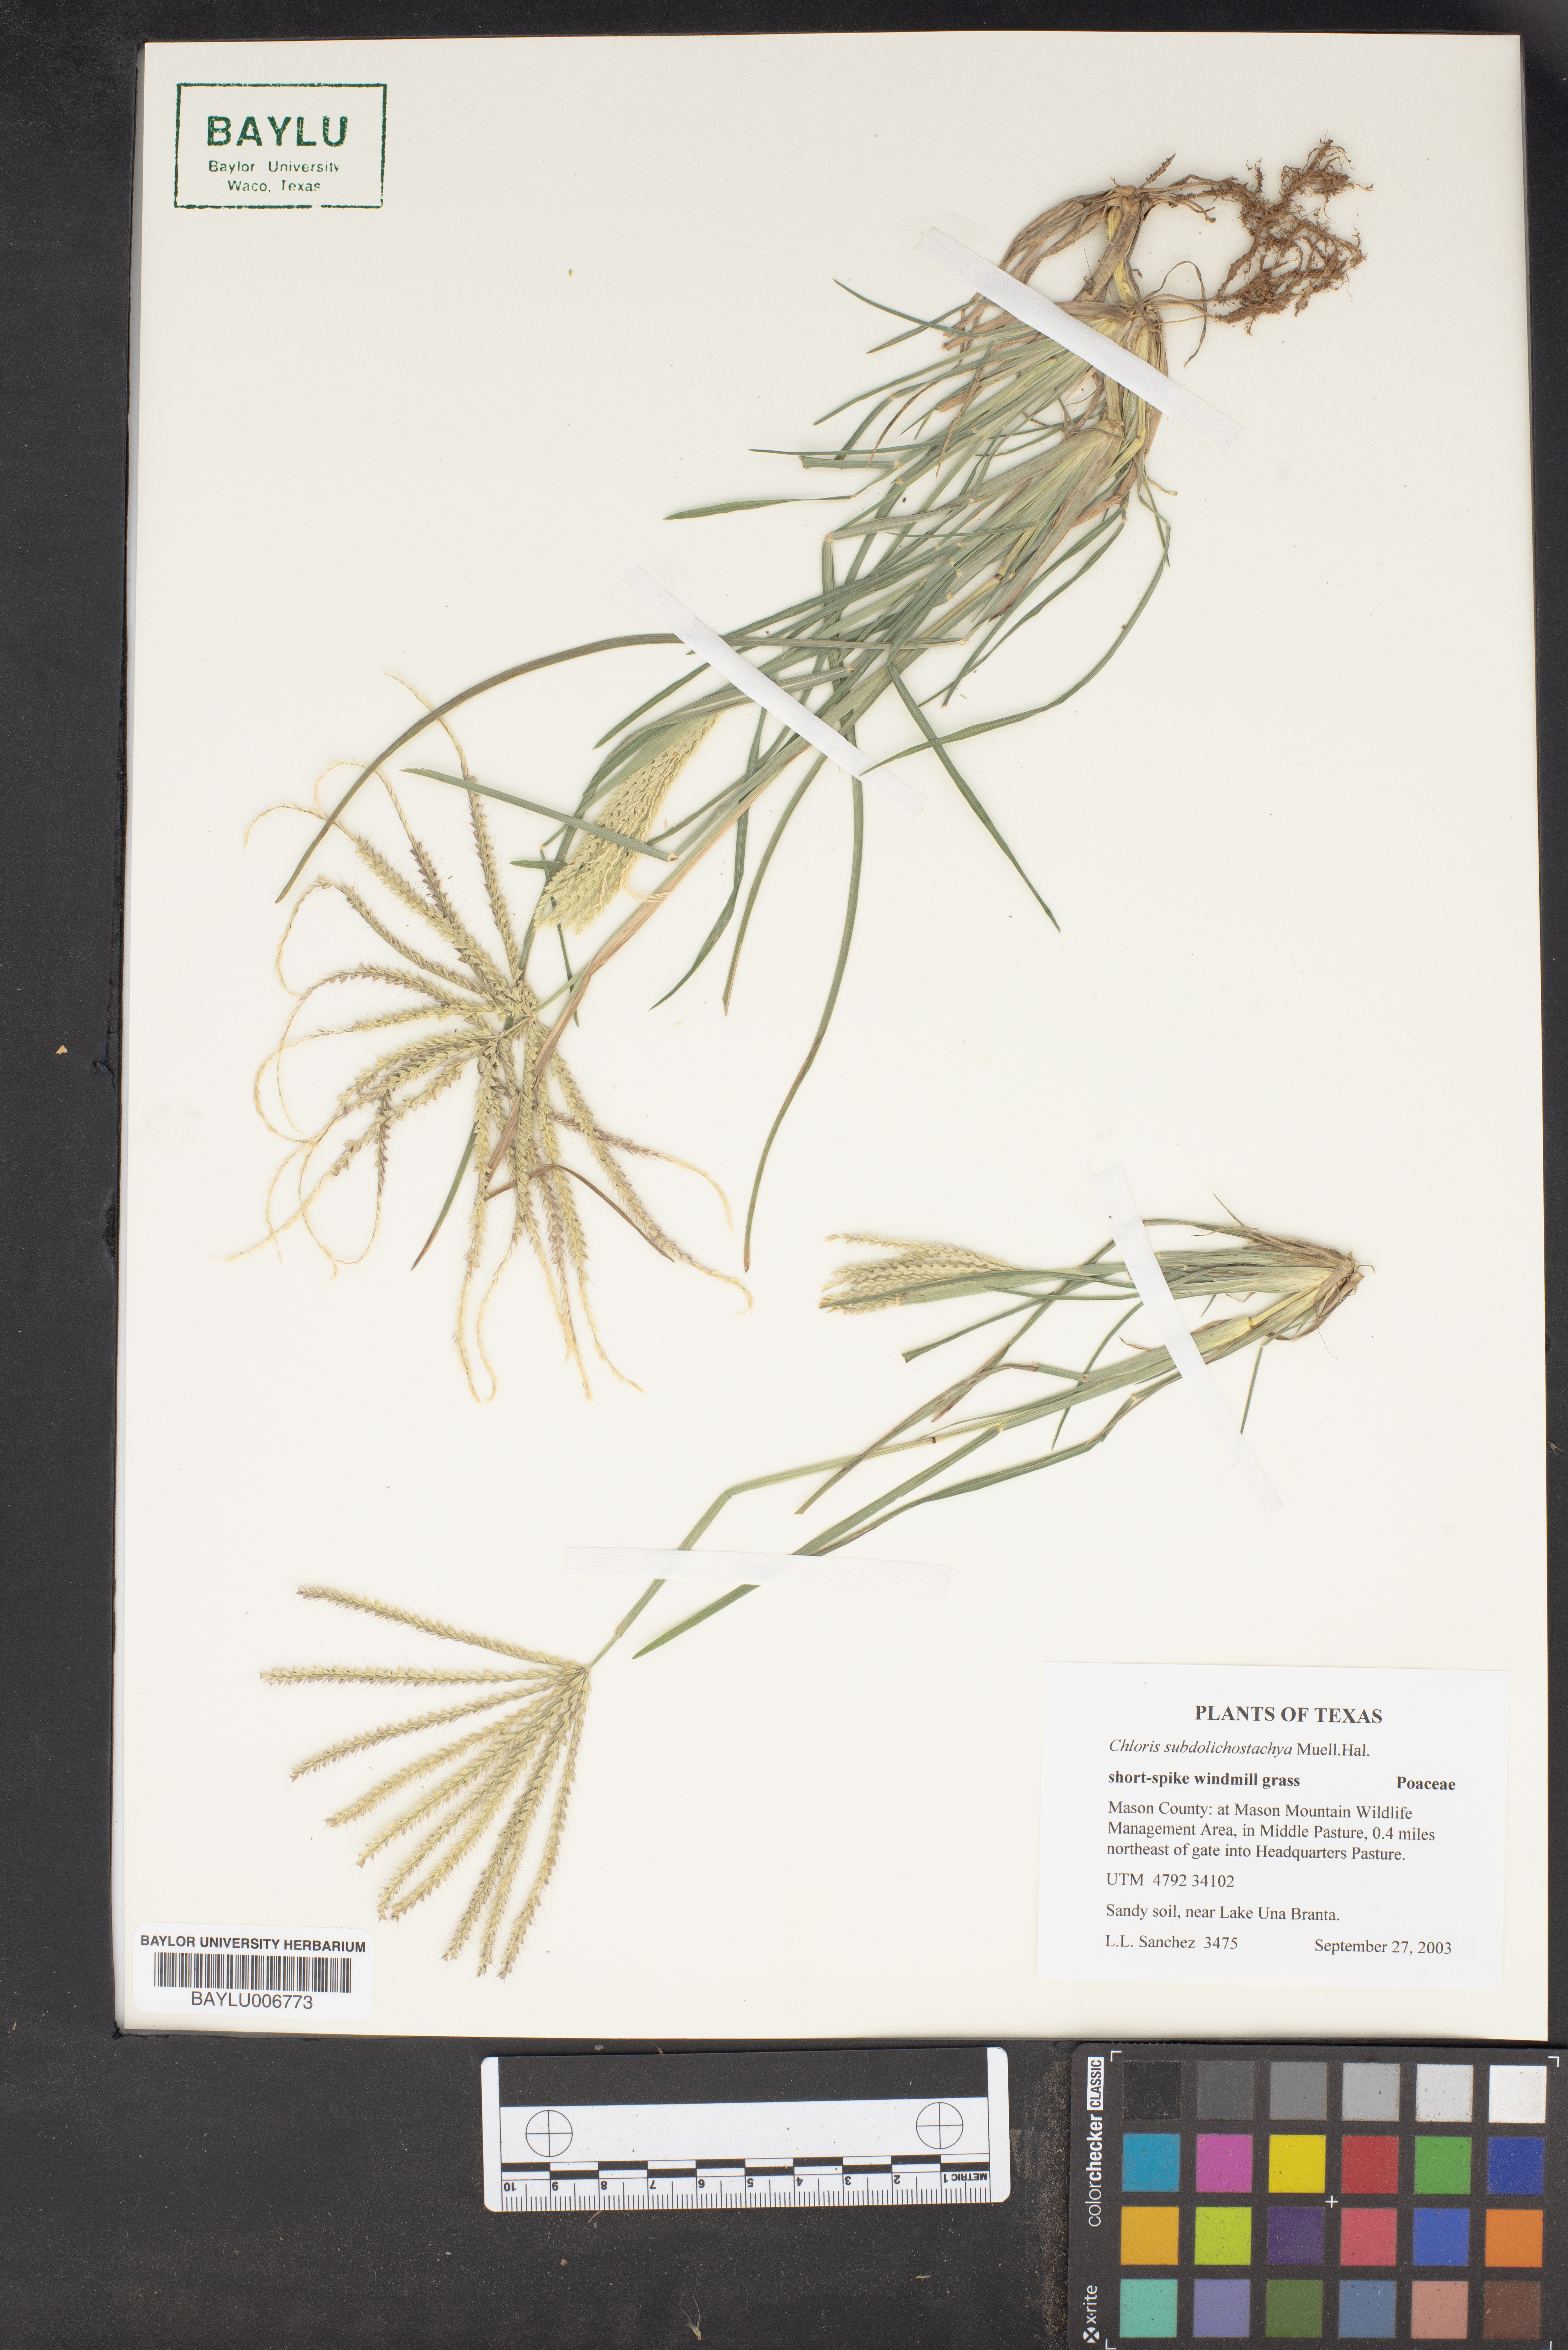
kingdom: Plantae
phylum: Tracheophyta
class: Liliopsida
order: Poales
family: Poaceae
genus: Chloris
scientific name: Chloris subdolichostachya
